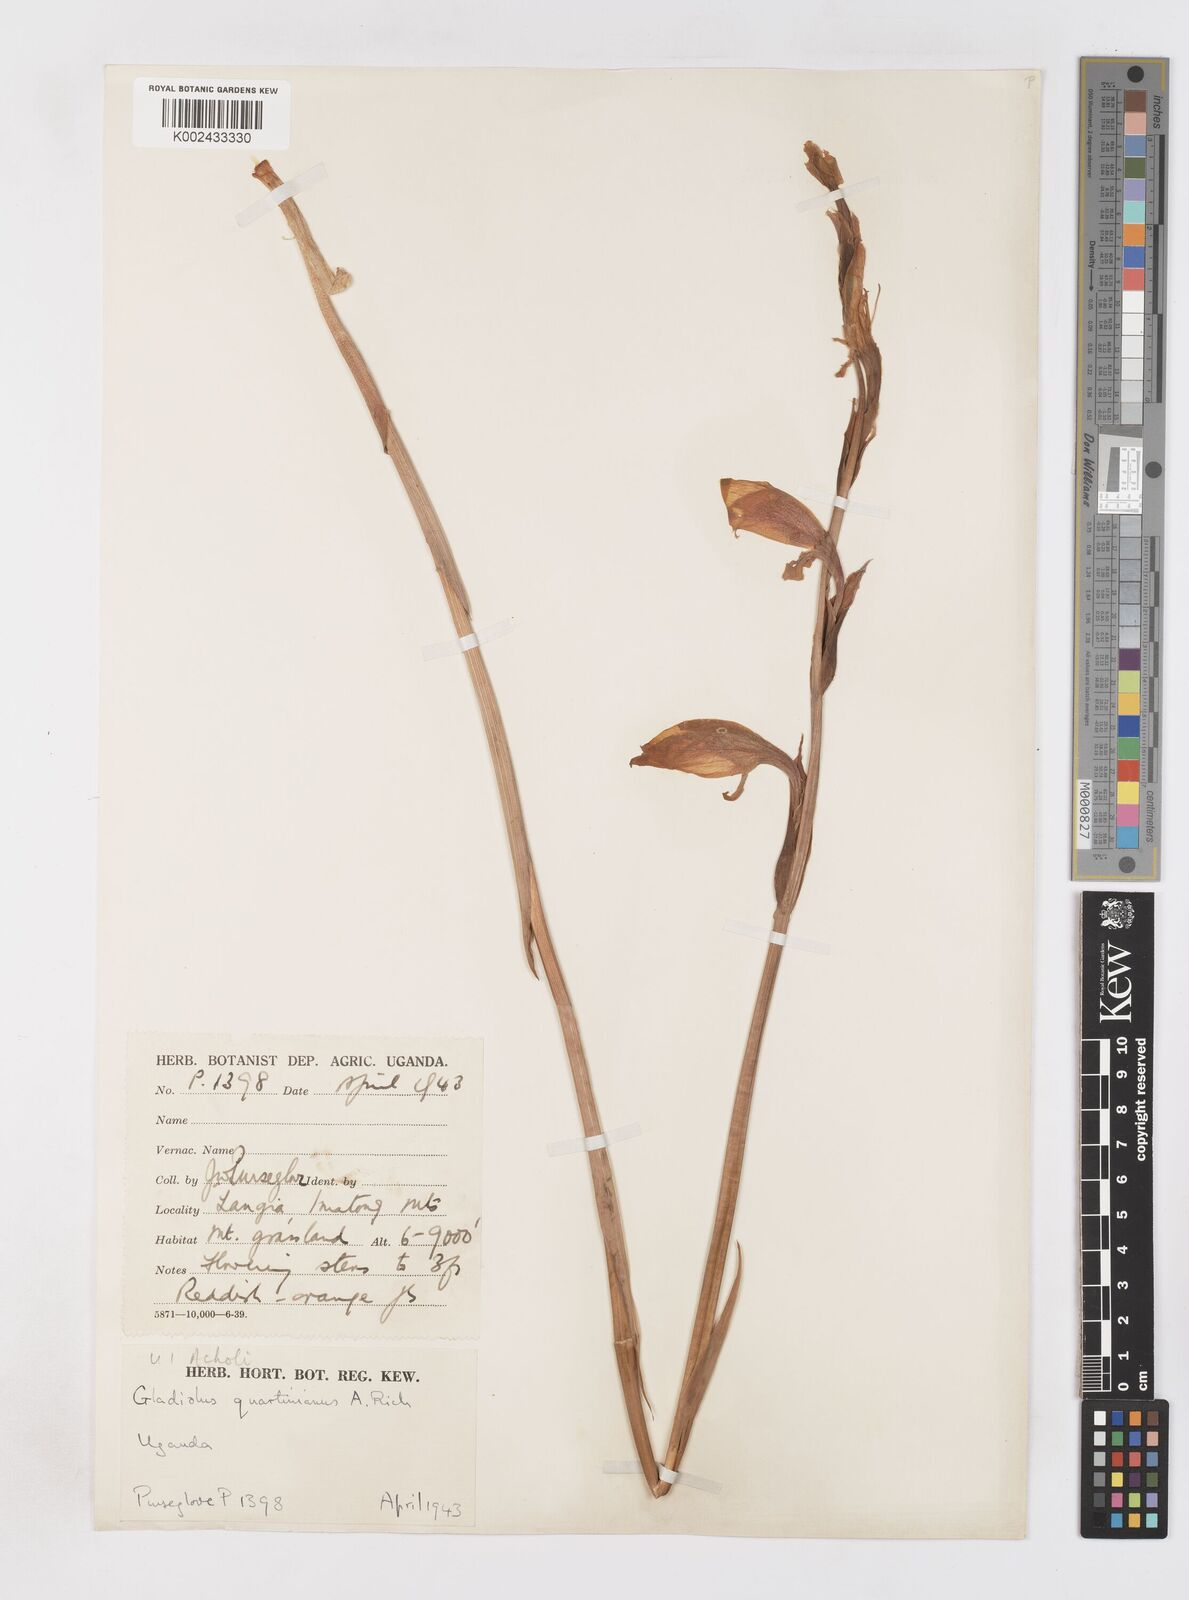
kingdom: Plantae
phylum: Tracheophyta
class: Liliopsida
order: Asparagales
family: Iridaceae
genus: Gladiolus
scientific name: Gladiolus dalenii
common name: Cornflag
